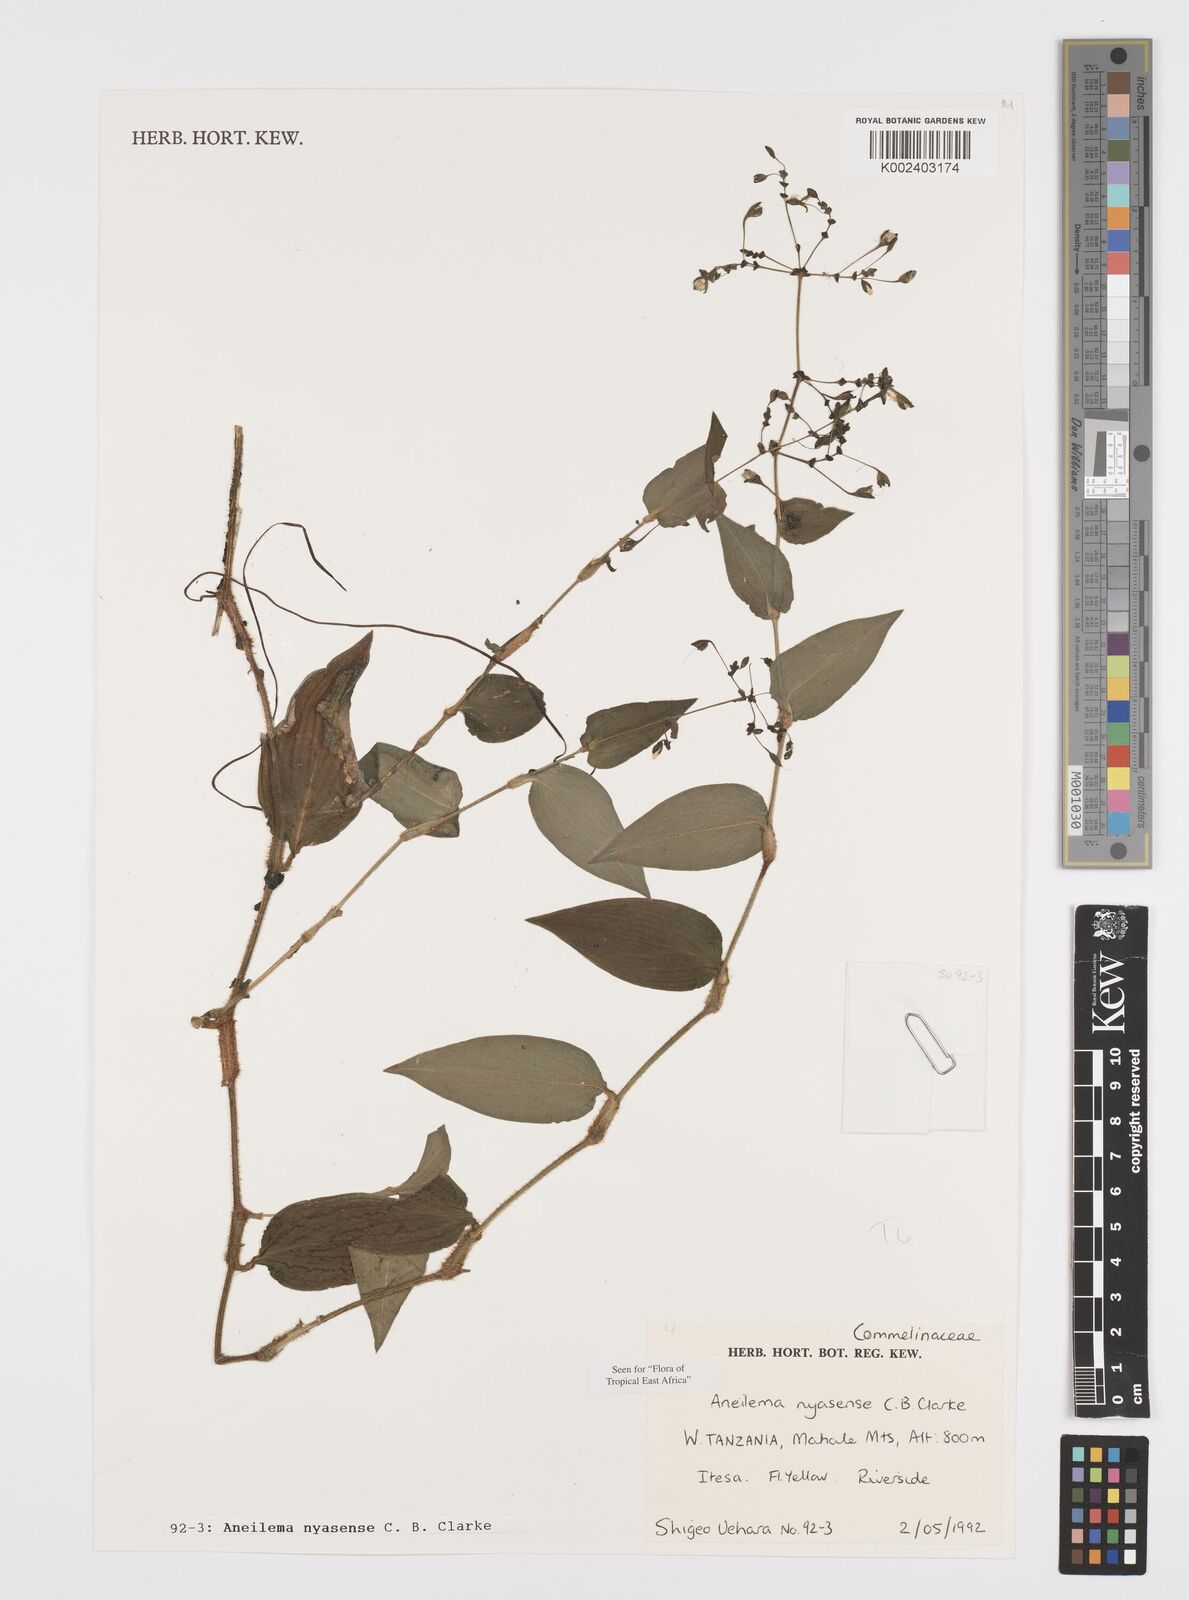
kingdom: Plantae
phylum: Tracheophyta
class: Liliopsida
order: Commelinales
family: Commelinaceae
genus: Aneilema
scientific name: Aneilema nyasense
